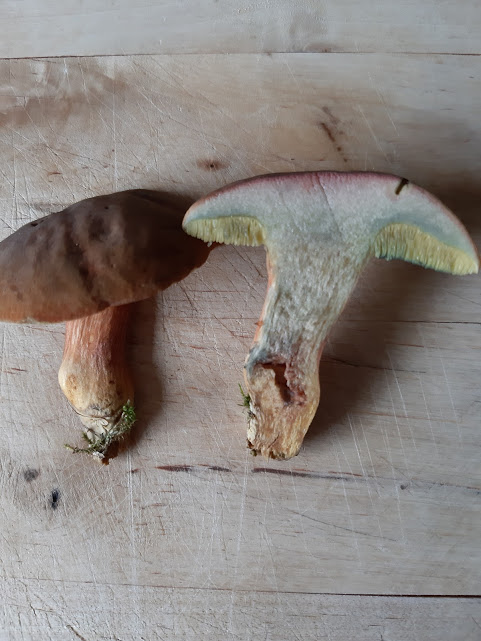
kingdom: Fungi
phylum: Basidiomycota
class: Agaricomycetes
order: Boletales
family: Boletaceae
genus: Hortiboletus
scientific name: Hortiboletus bubalinus
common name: aurora-rørhat
